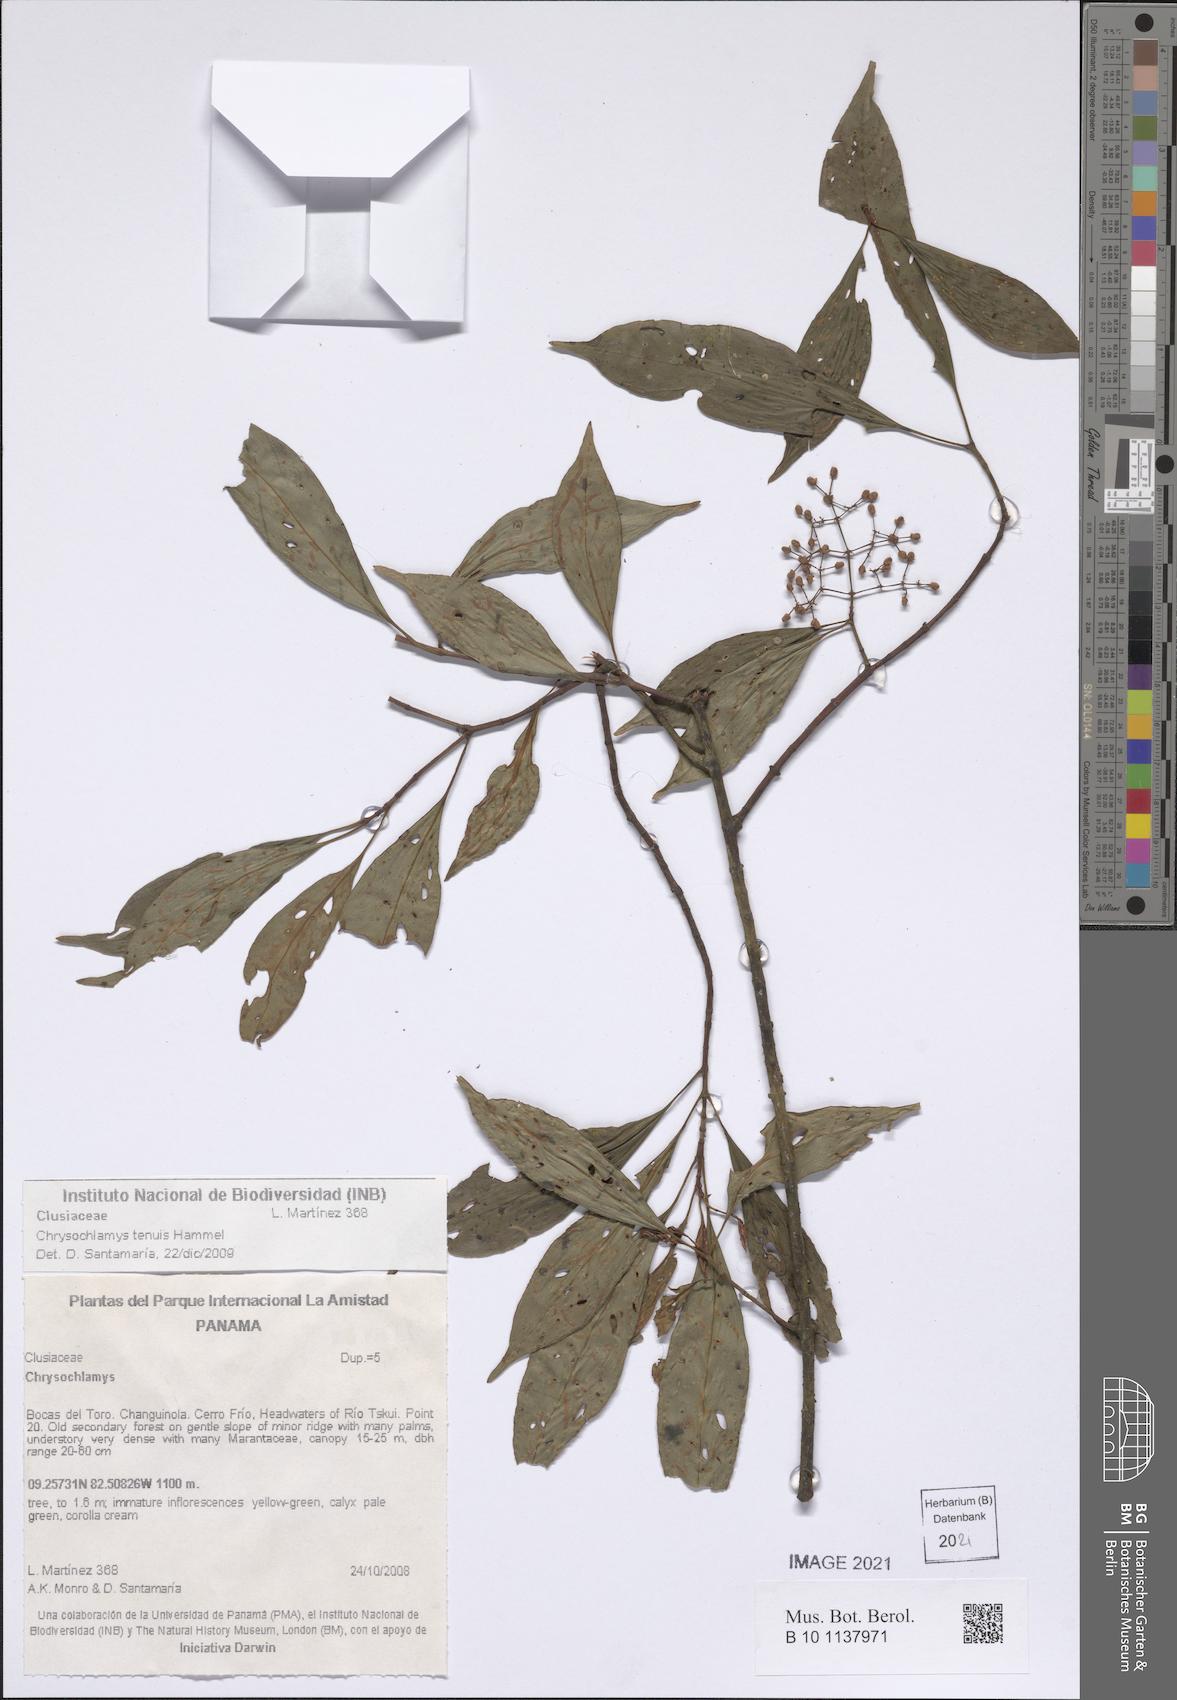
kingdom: Plantae
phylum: Tracheophyta
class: Magnoliopsida
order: Malpighiales
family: Clusiaceae
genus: Chrysochlamys
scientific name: Chrysochlamys tenuis
